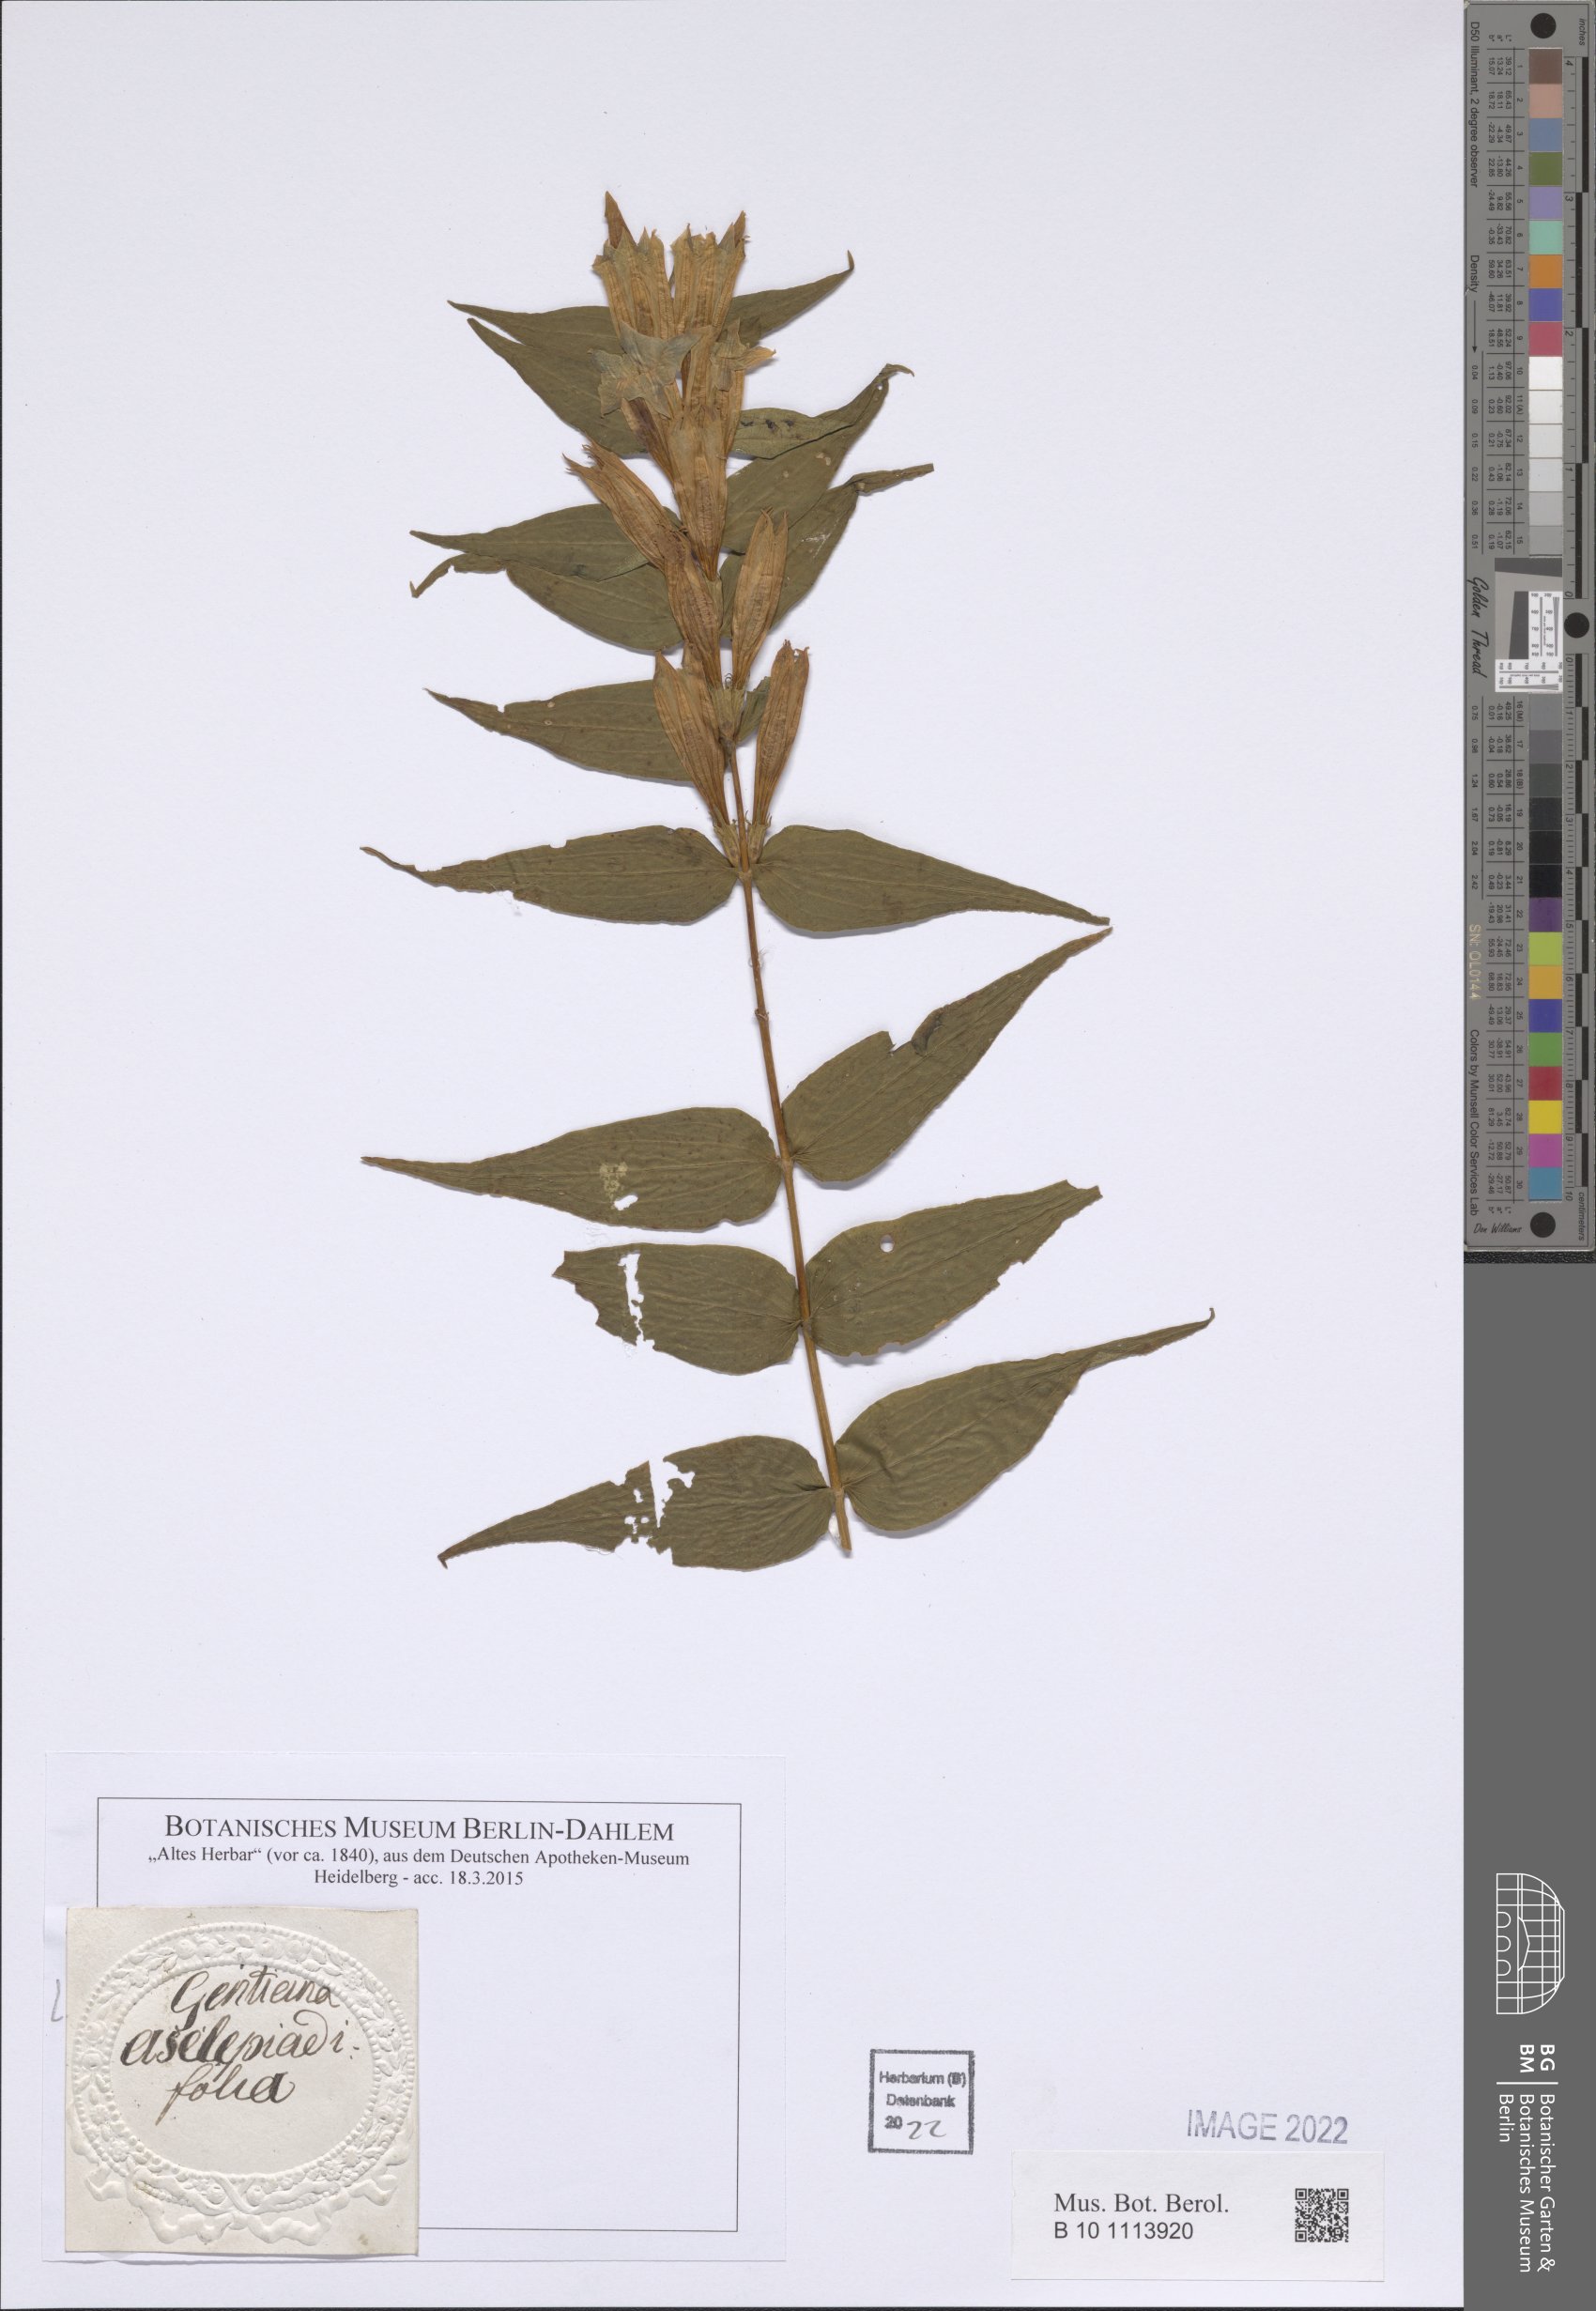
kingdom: Plantae
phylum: Tracheophyta
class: Magnoliopsida
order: Gentianales
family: Gentianaceae
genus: Gentiana
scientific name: Gentiana asclepiadea
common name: Willow gentian
